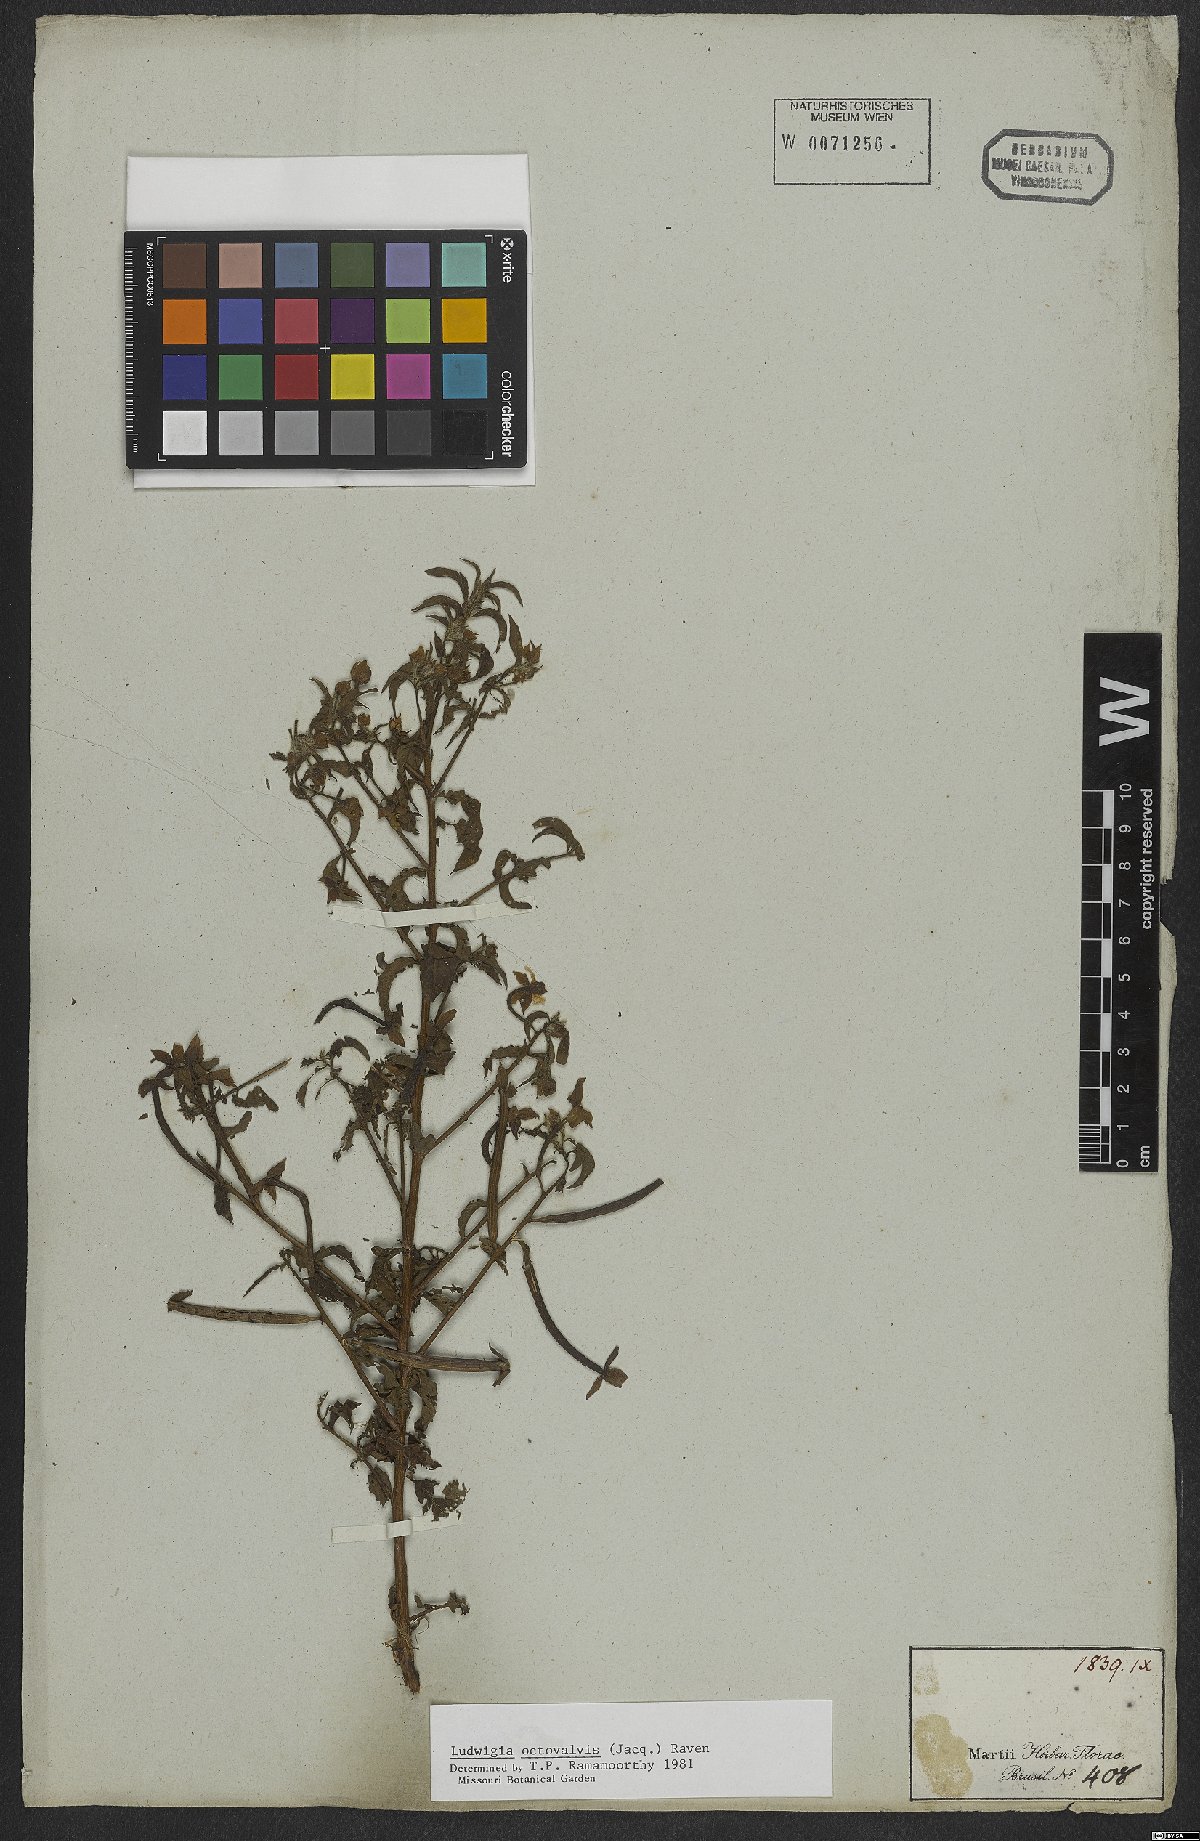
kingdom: Plantae
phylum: Tracheophyta
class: Magnoliopsida
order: Myrtales
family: Onagraceae
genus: Ludwigia
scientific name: Ludwigia octovalvis
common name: Water-primrose
